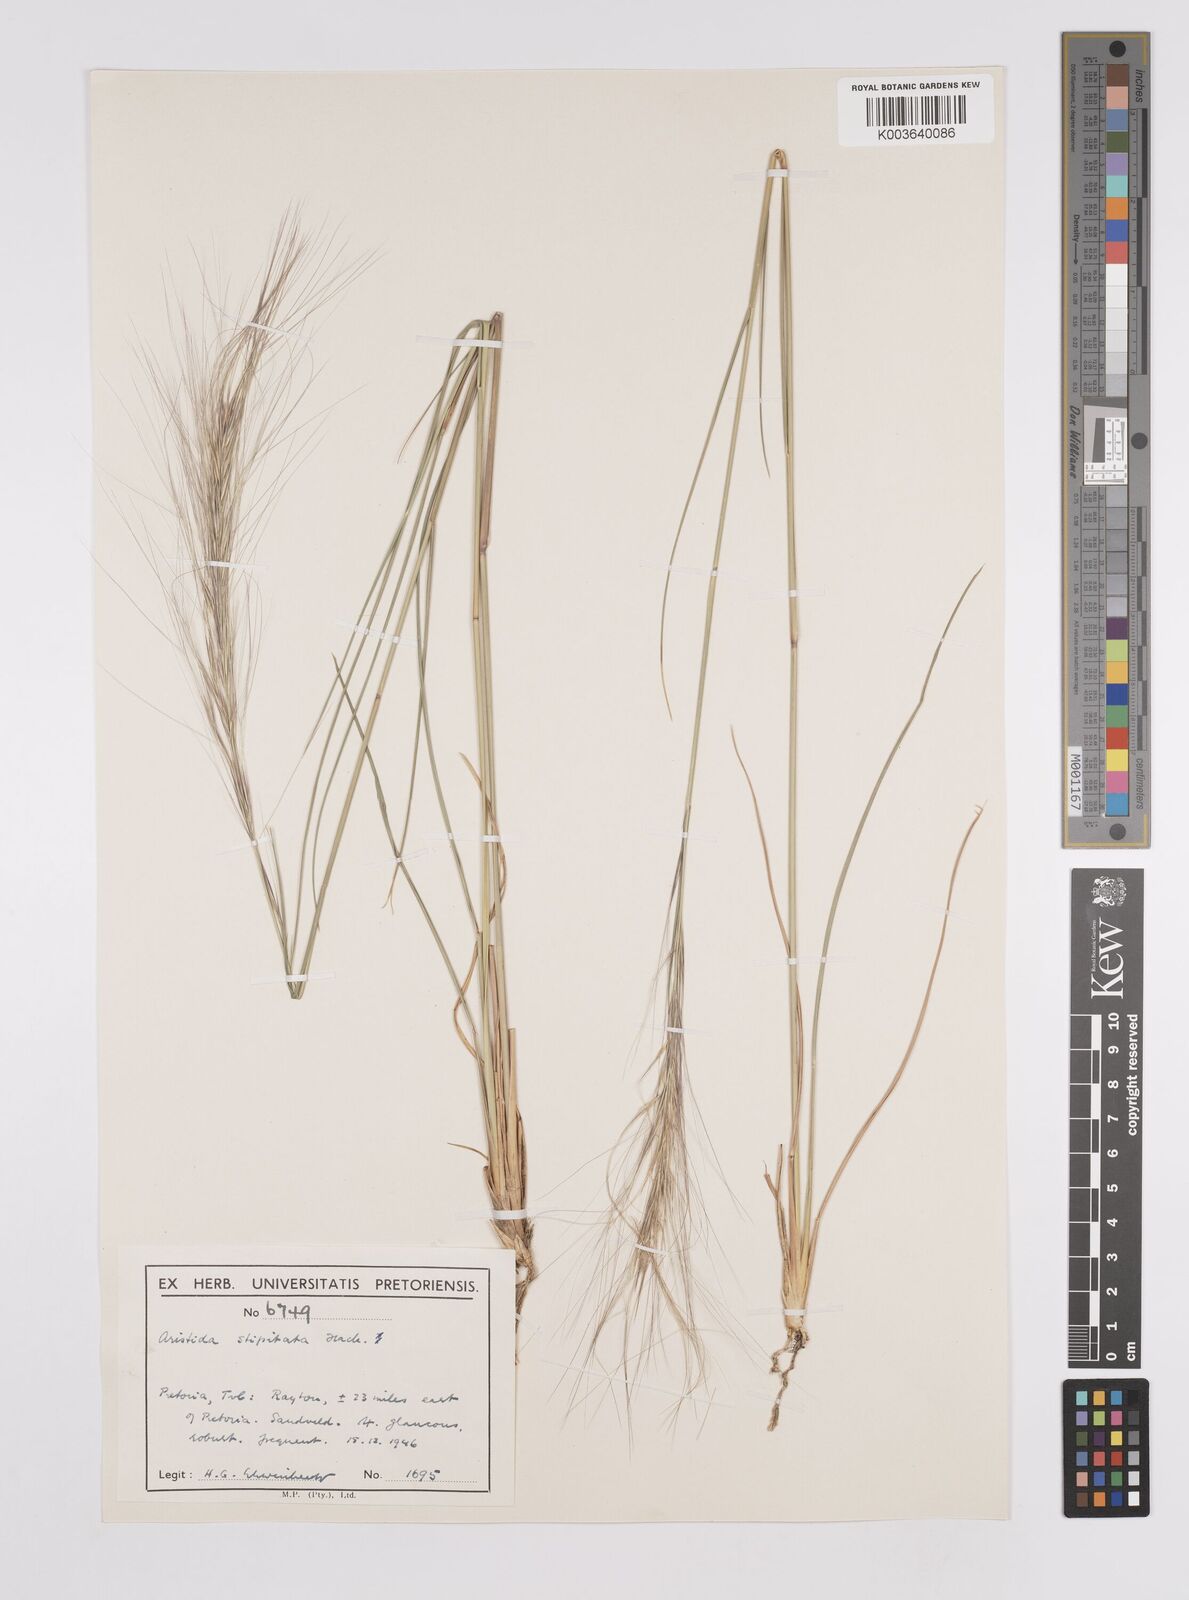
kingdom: Plantae
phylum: Tracheophyta
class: Liliopsida
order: Poales
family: Poaceae
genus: Aristida
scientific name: Aristida stipitata
